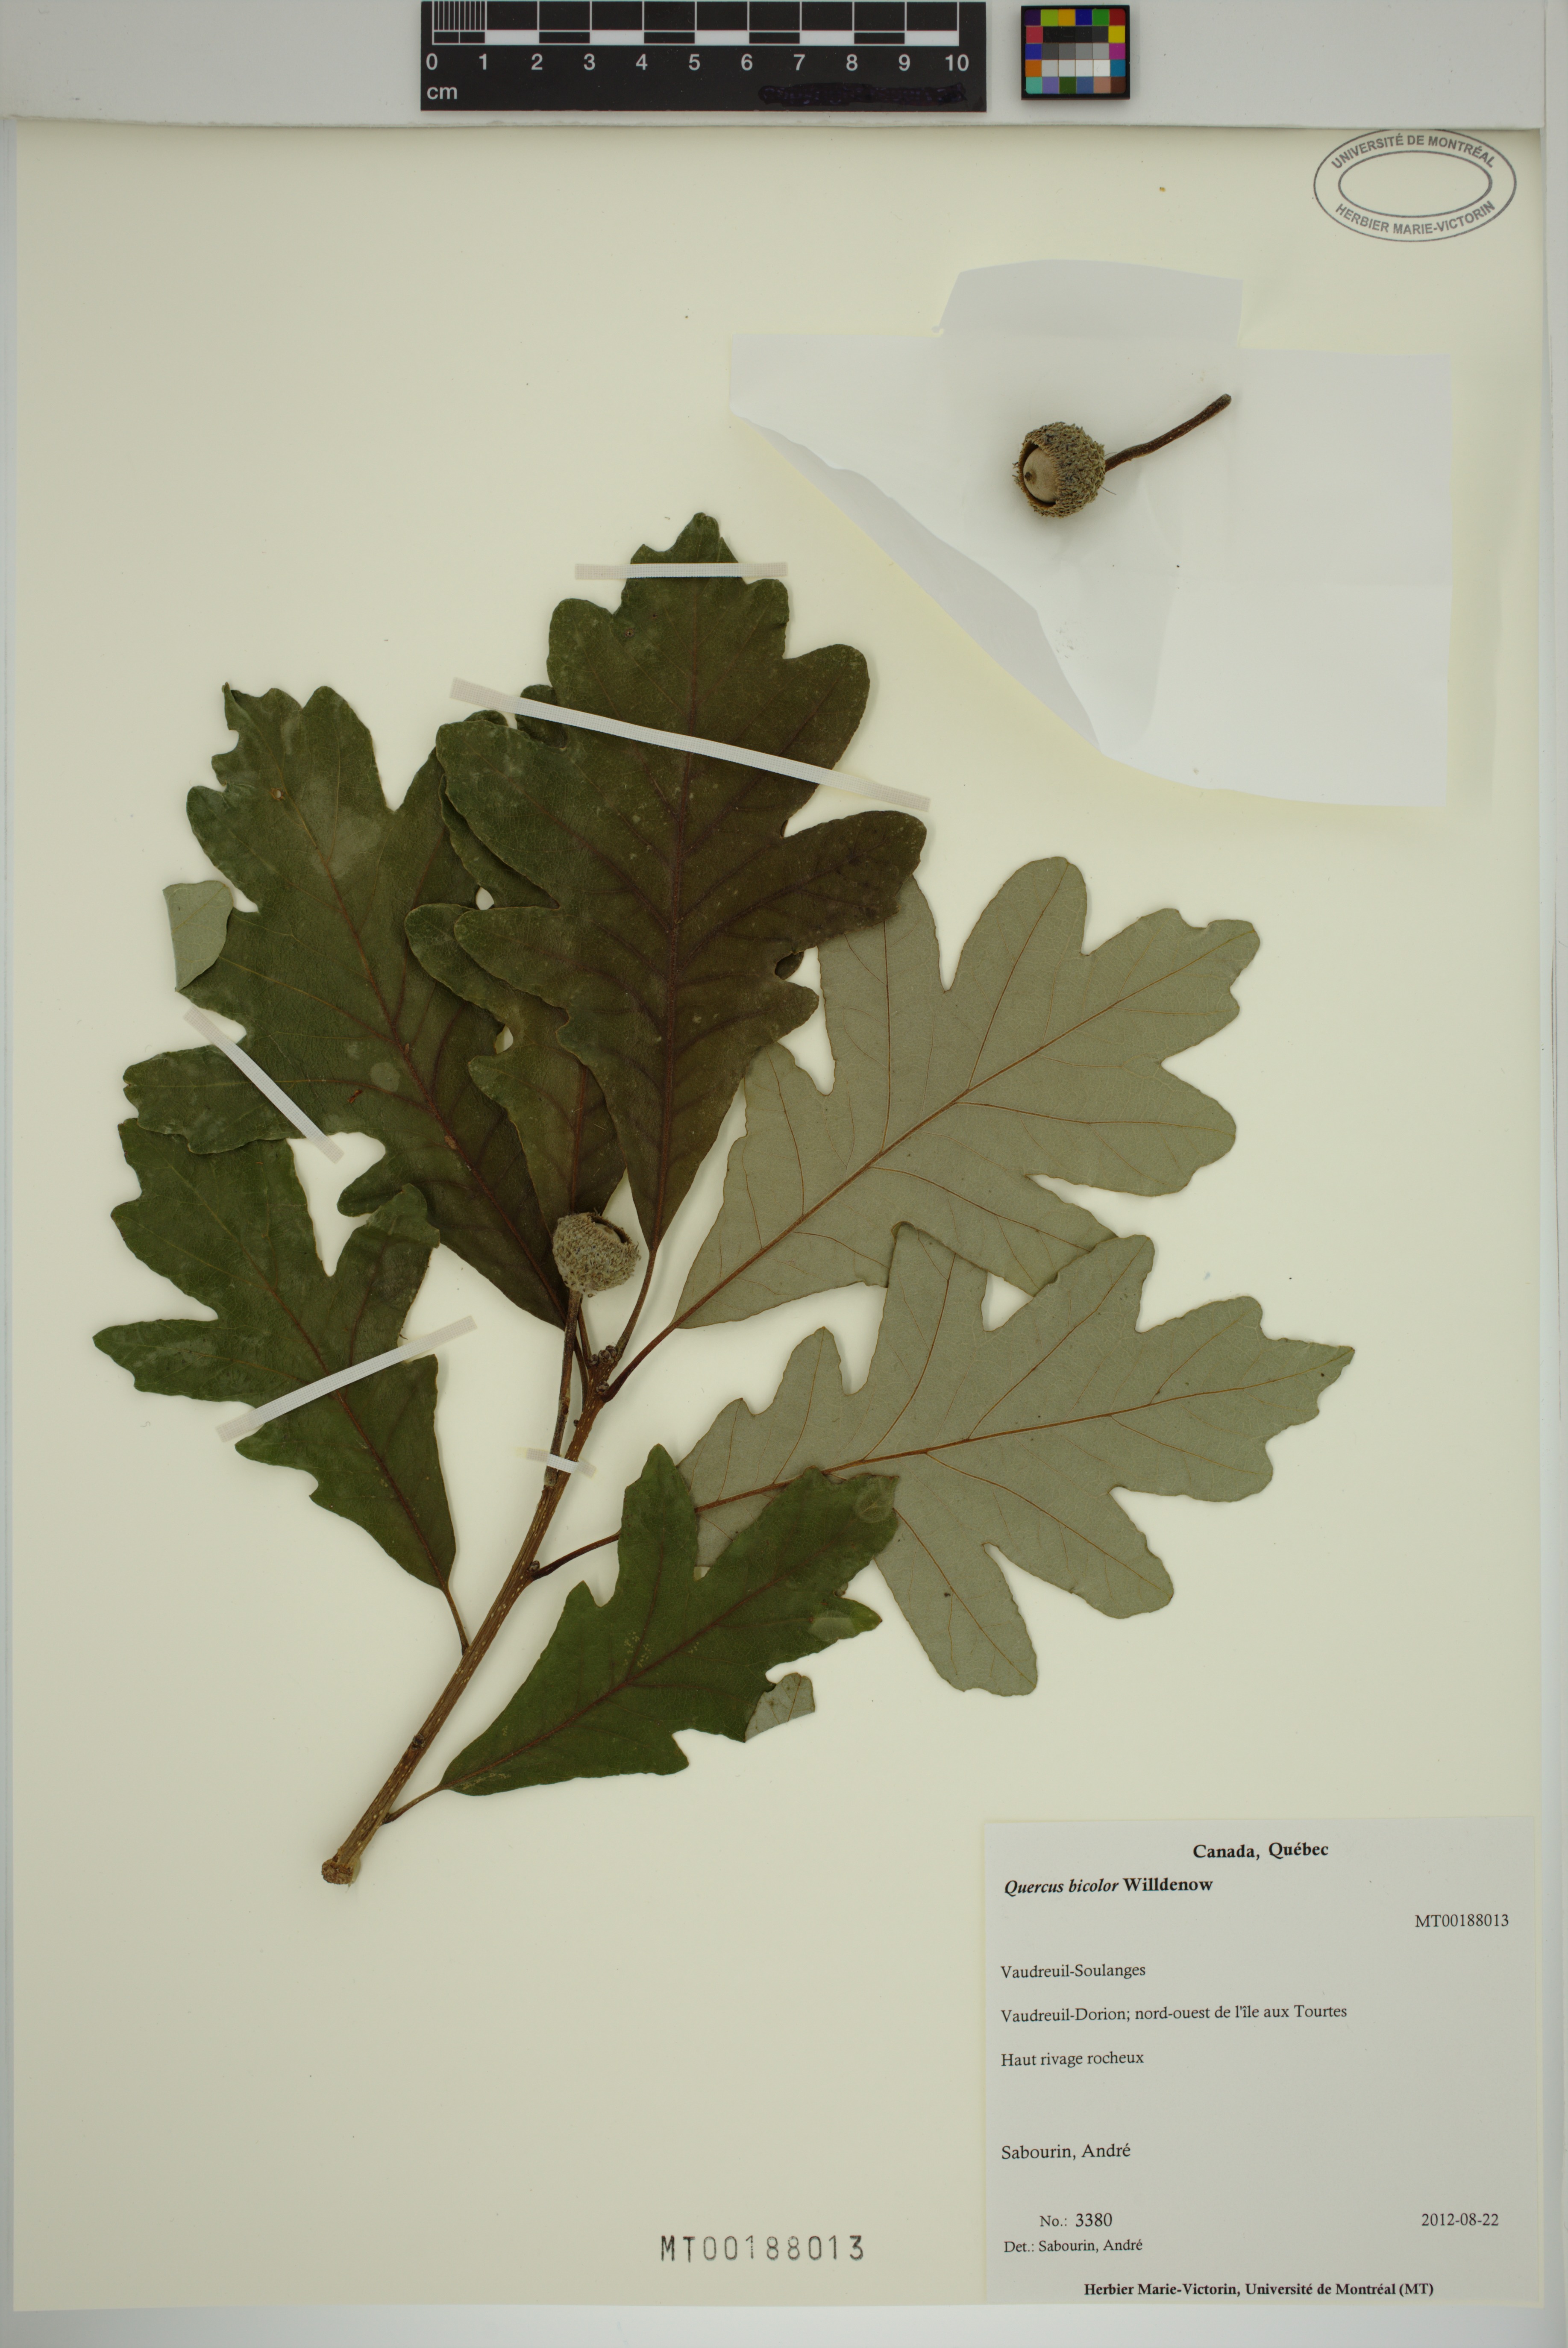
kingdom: Plantae
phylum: Tracheophyta
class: Magnoliopsida
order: Fagales
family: Fagaceae
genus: Quercus
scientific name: Quercus bicolor
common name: Swamp white oak
